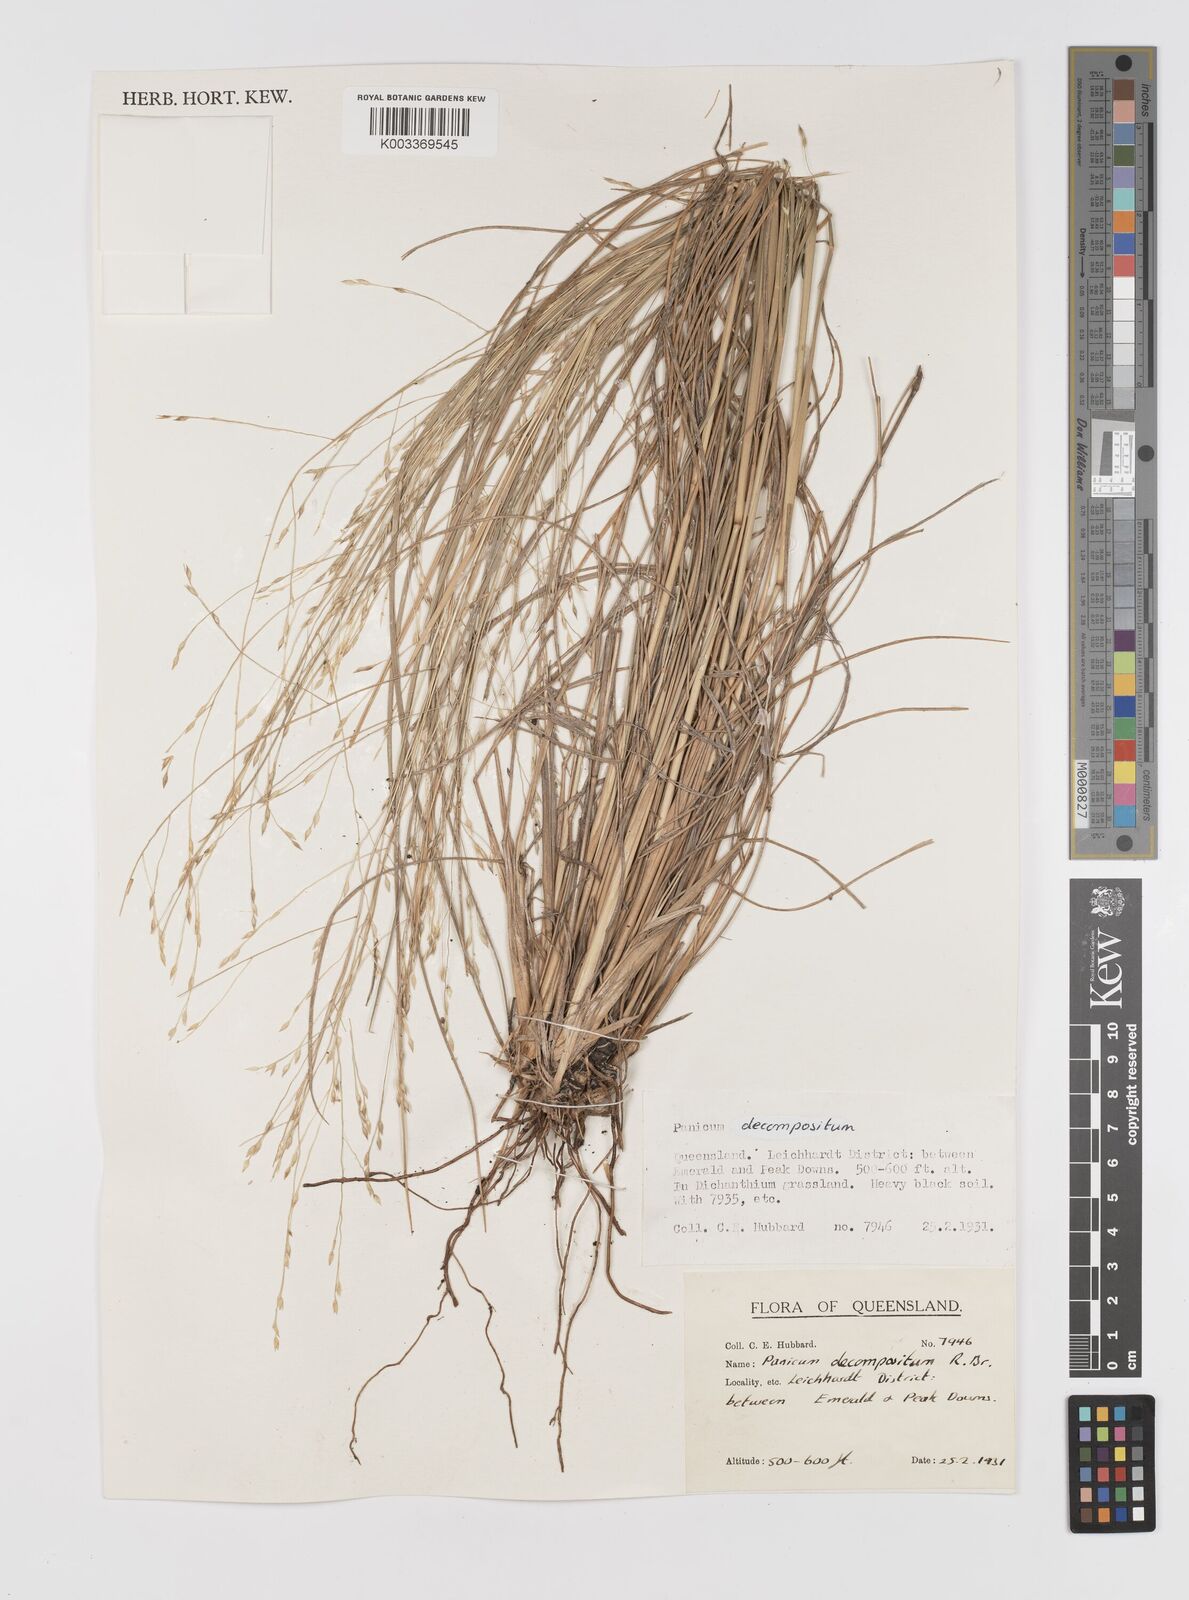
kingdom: Plantae
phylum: Tracheophyta
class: Liliopsida
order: Poales
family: Poaceae
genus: Panicum
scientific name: Panicum decompositum
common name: Australian millet
